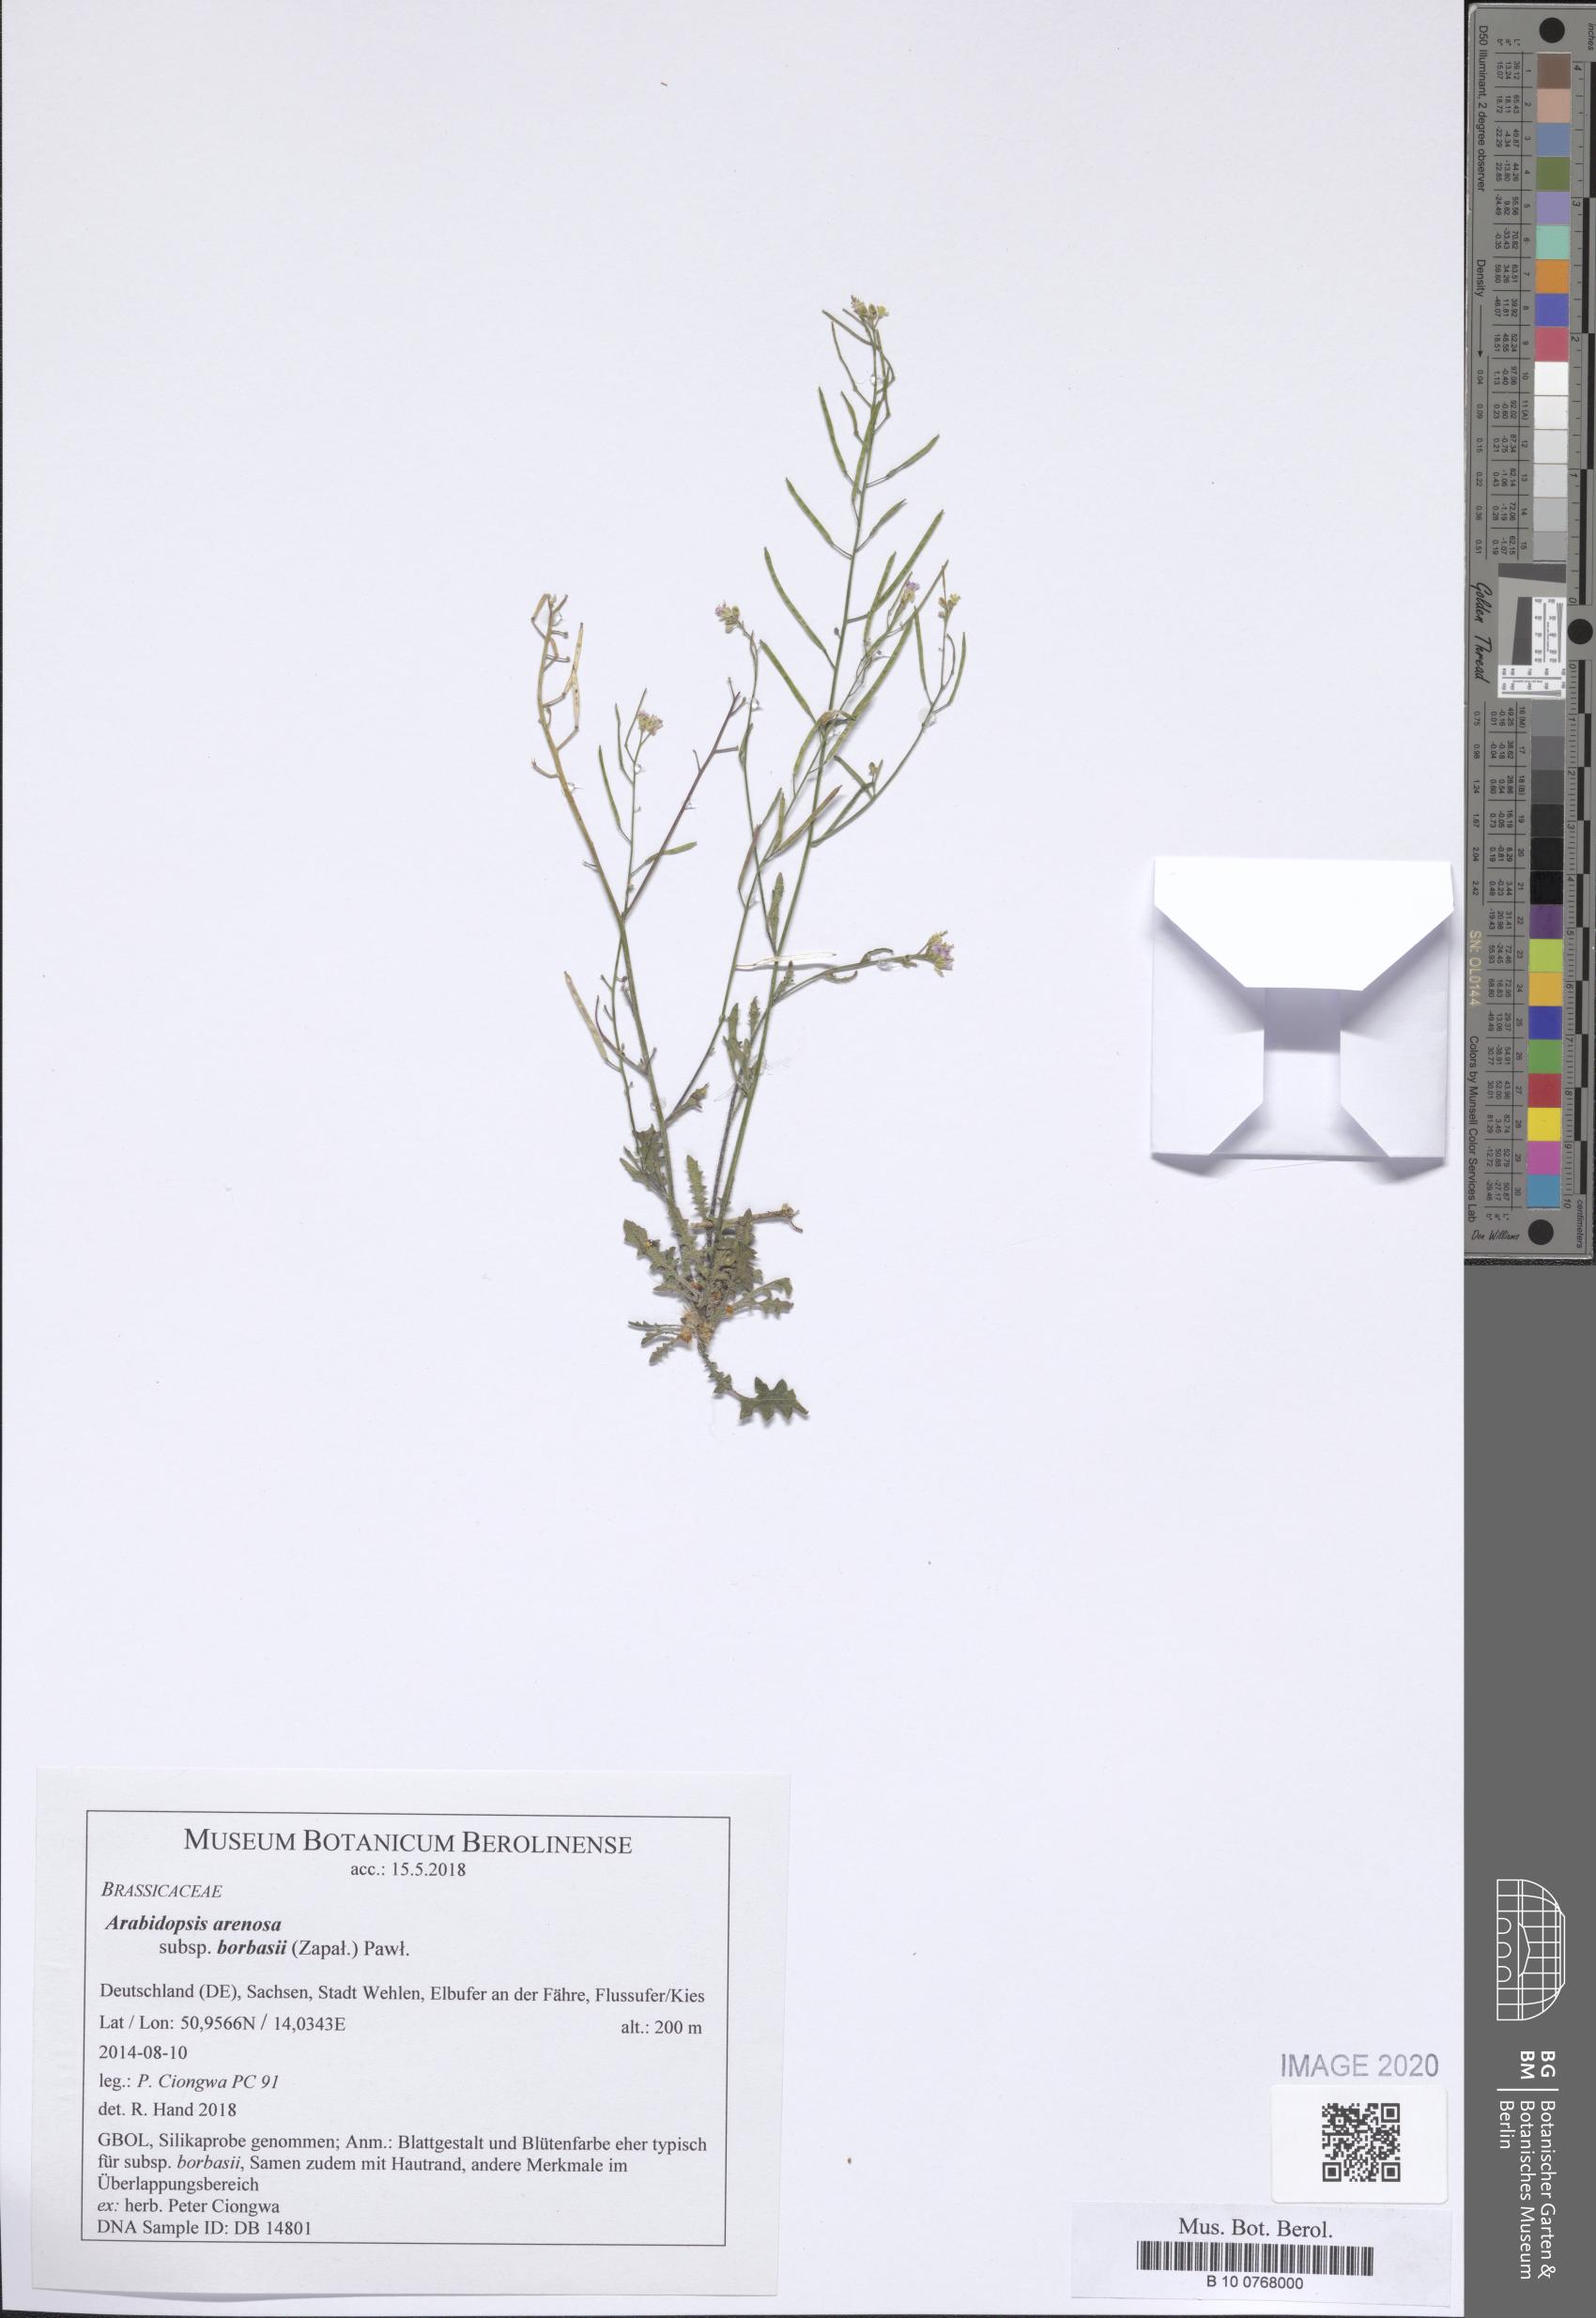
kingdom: Plantae
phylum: Tracheophyta
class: Magnoliopsida
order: Brassicales
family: Brassicaceae
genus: Arabidopsis
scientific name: Arabidopsis arenosa
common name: Sand rock-cress
